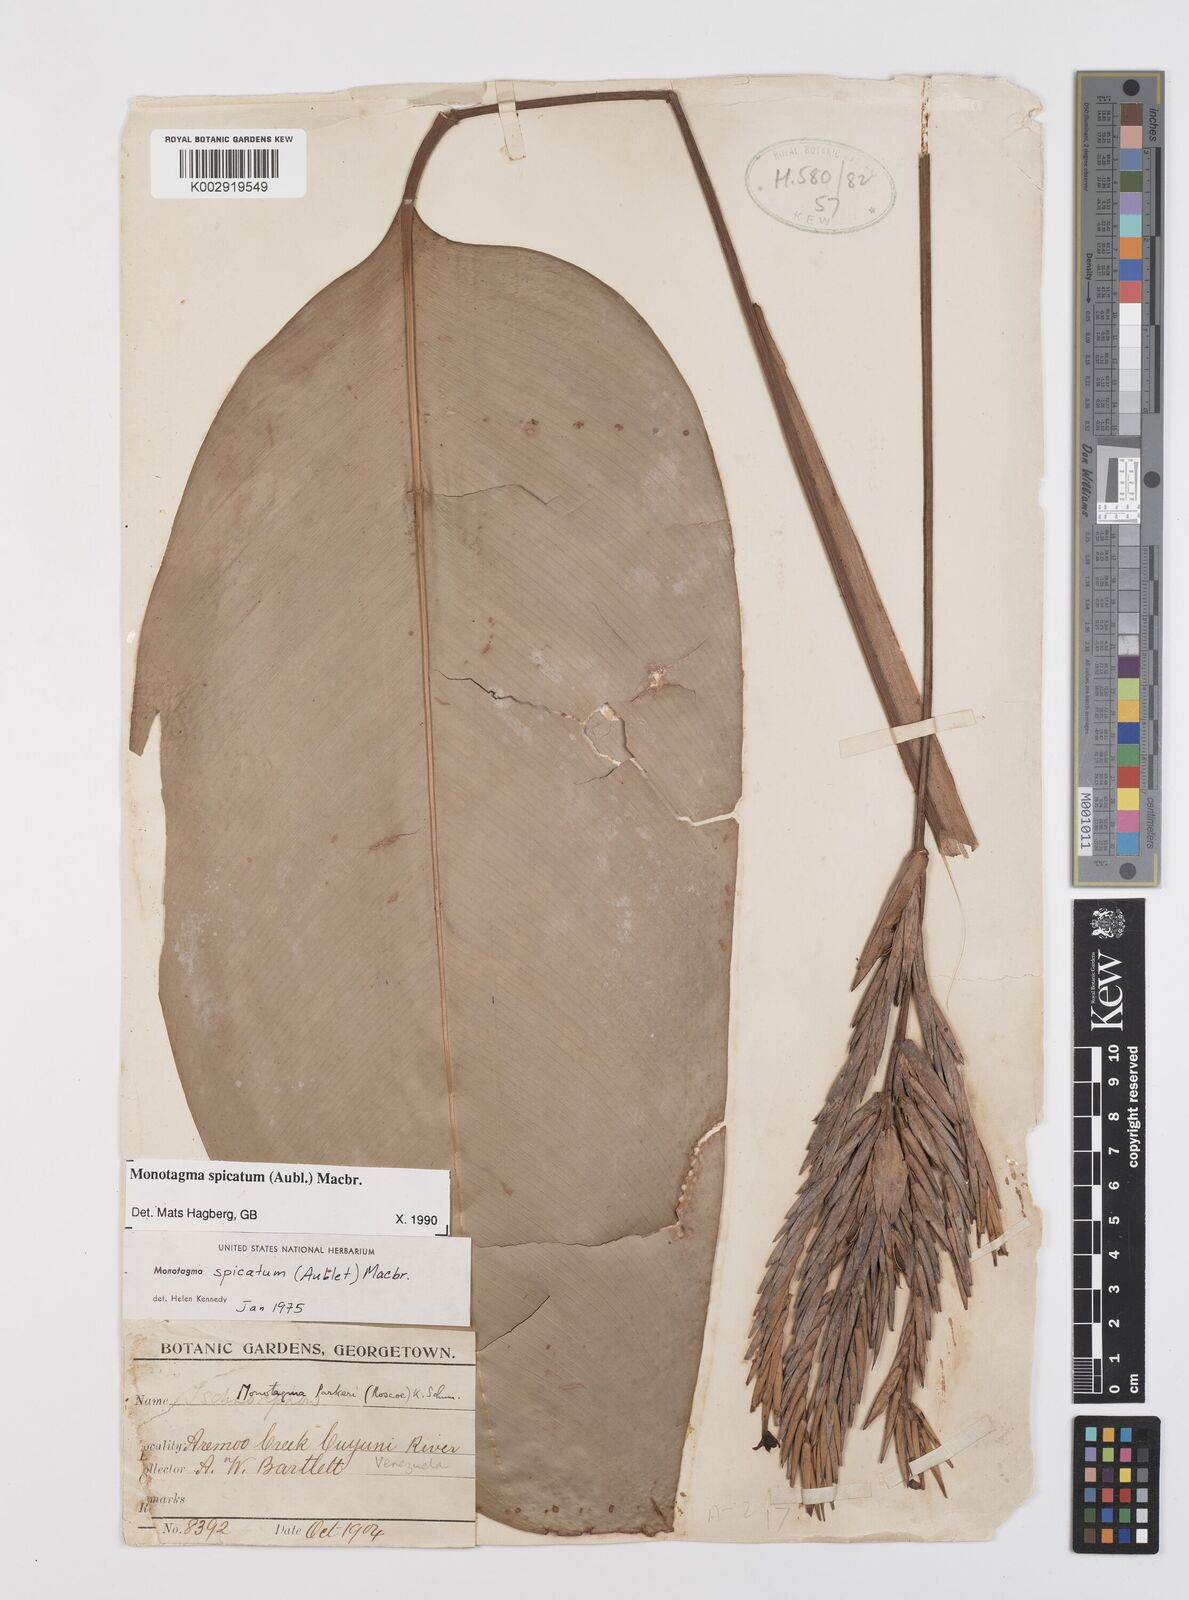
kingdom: Plantae
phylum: Tracheophyta
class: Liliopsida
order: Zingiberales
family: Marantaceae
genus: Monotagma
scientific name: Monotagma spicatum
